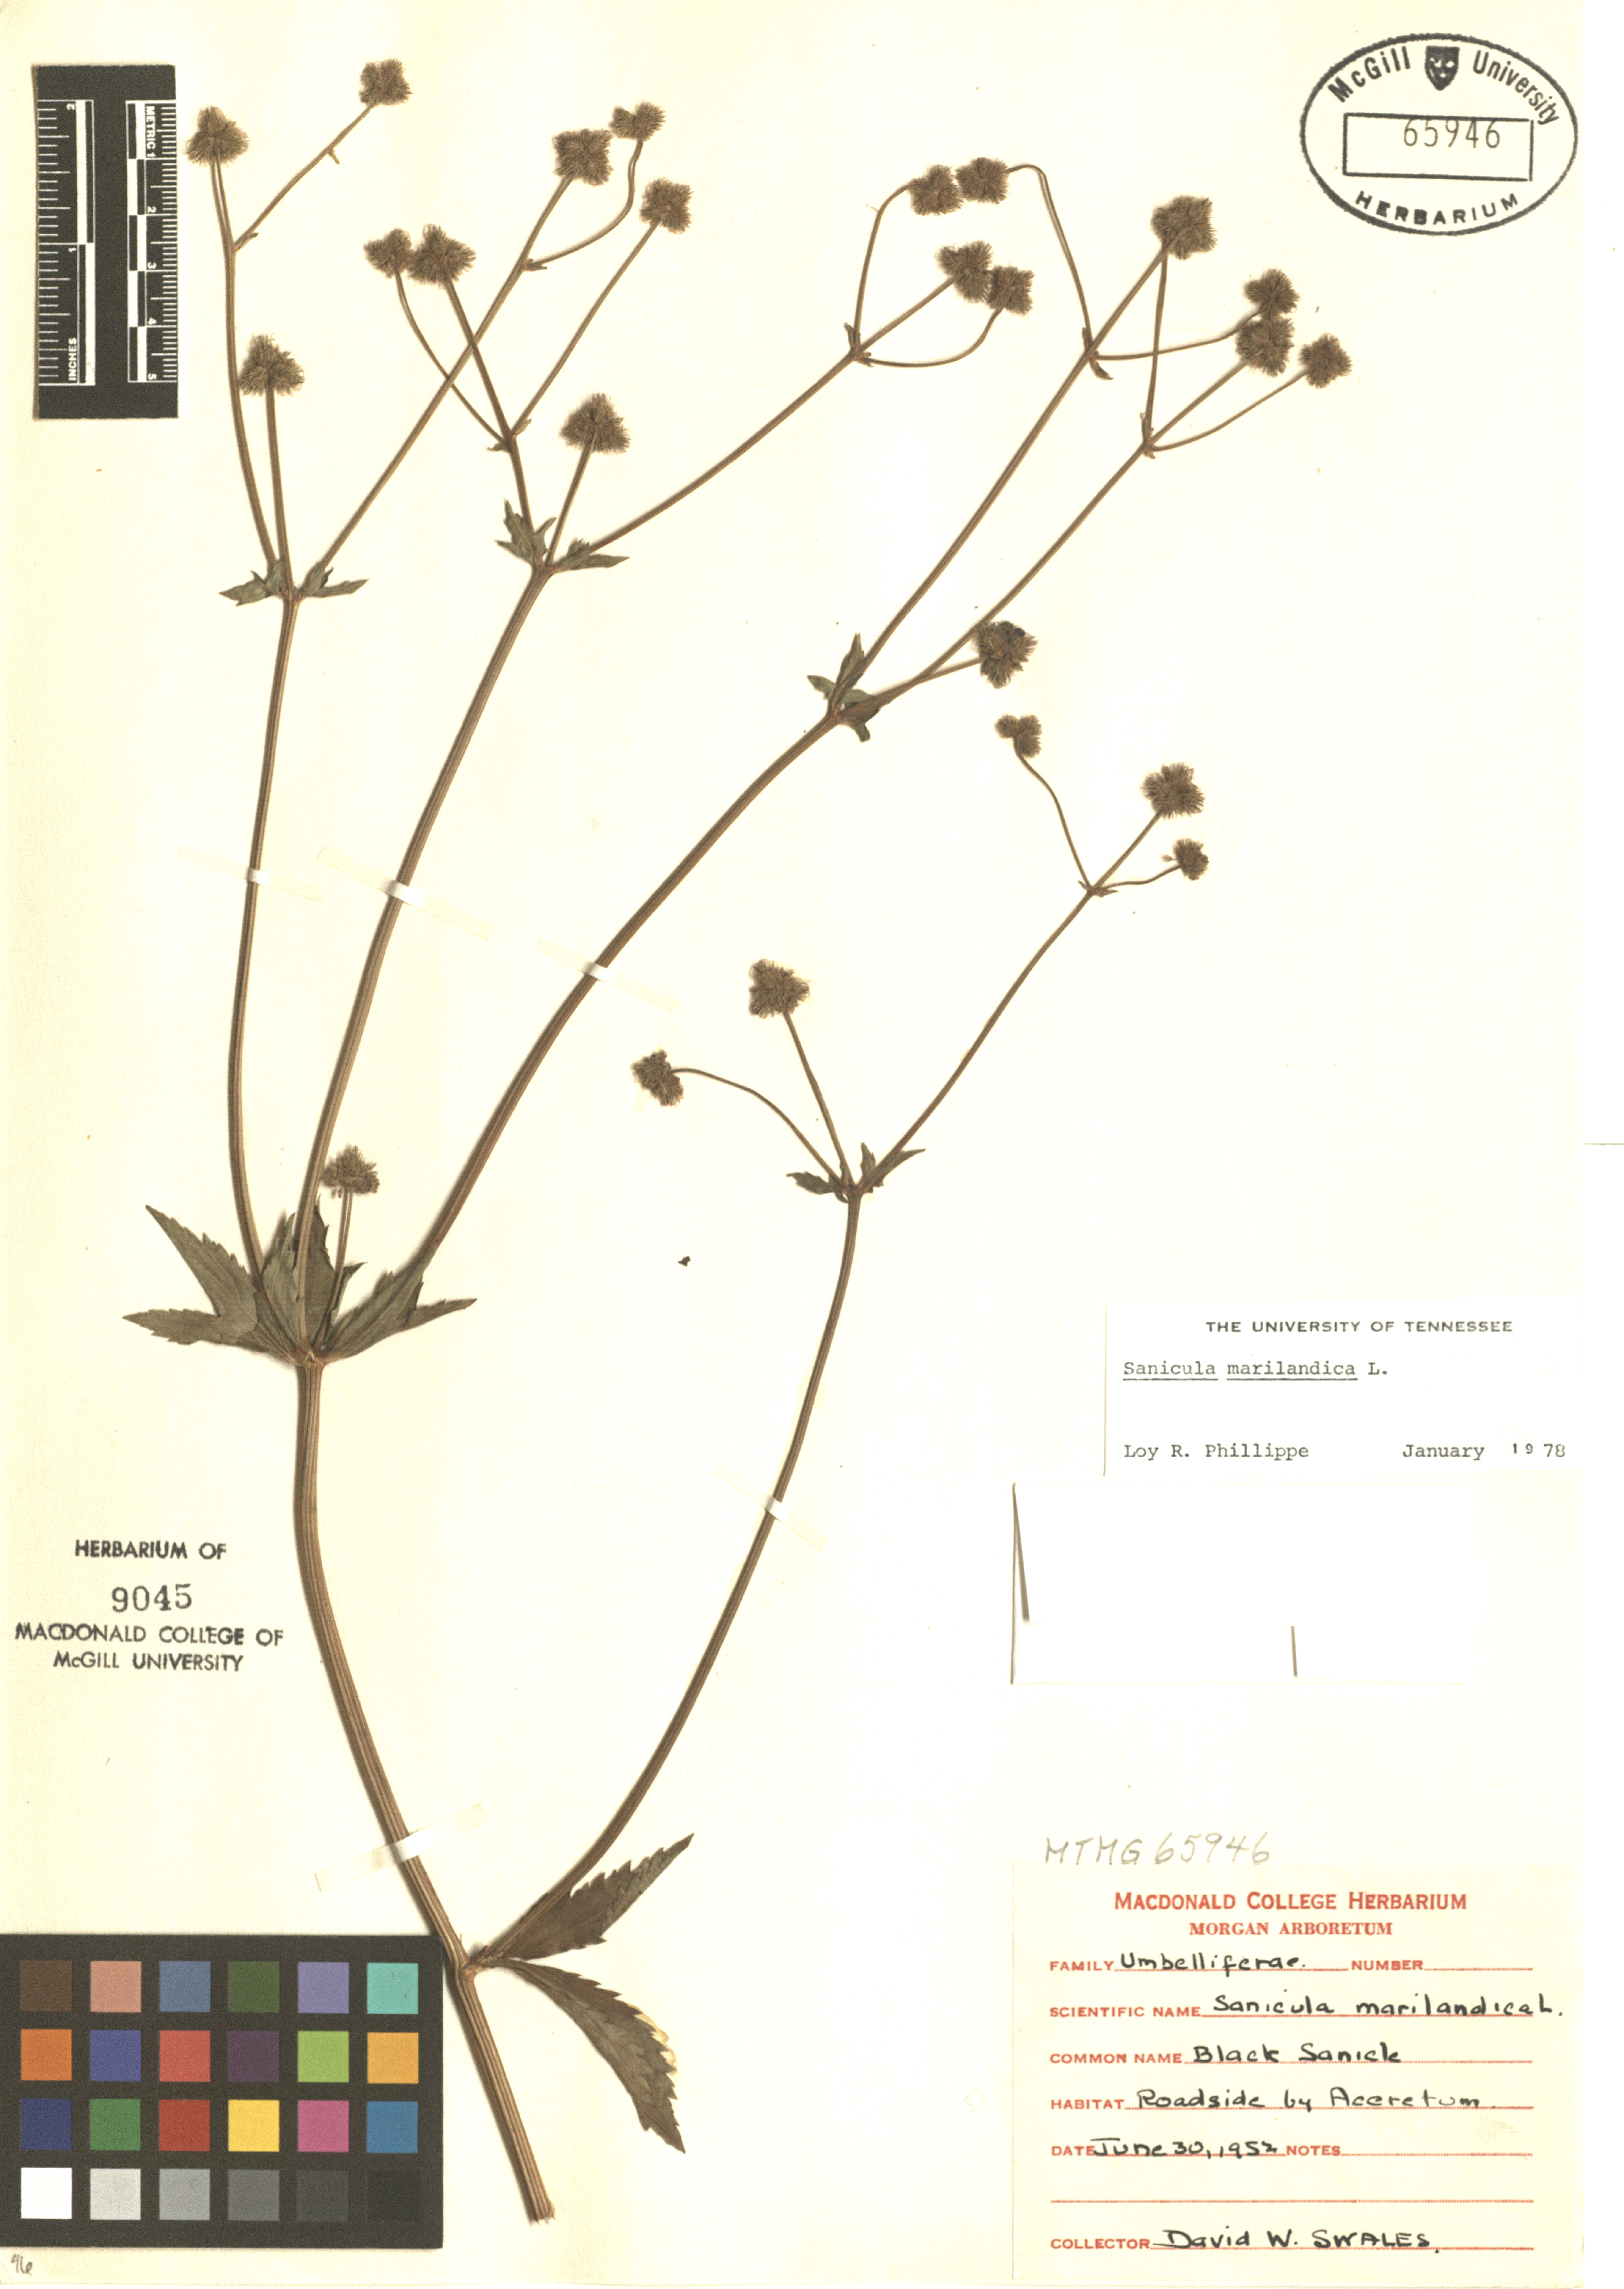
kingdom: Plantae
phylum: Tracheophyta
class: Magnoliopsida
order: Apiales
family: Apiaceae
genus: Sanicula
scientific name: Sanicula marilandica
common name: Black snakeroot
